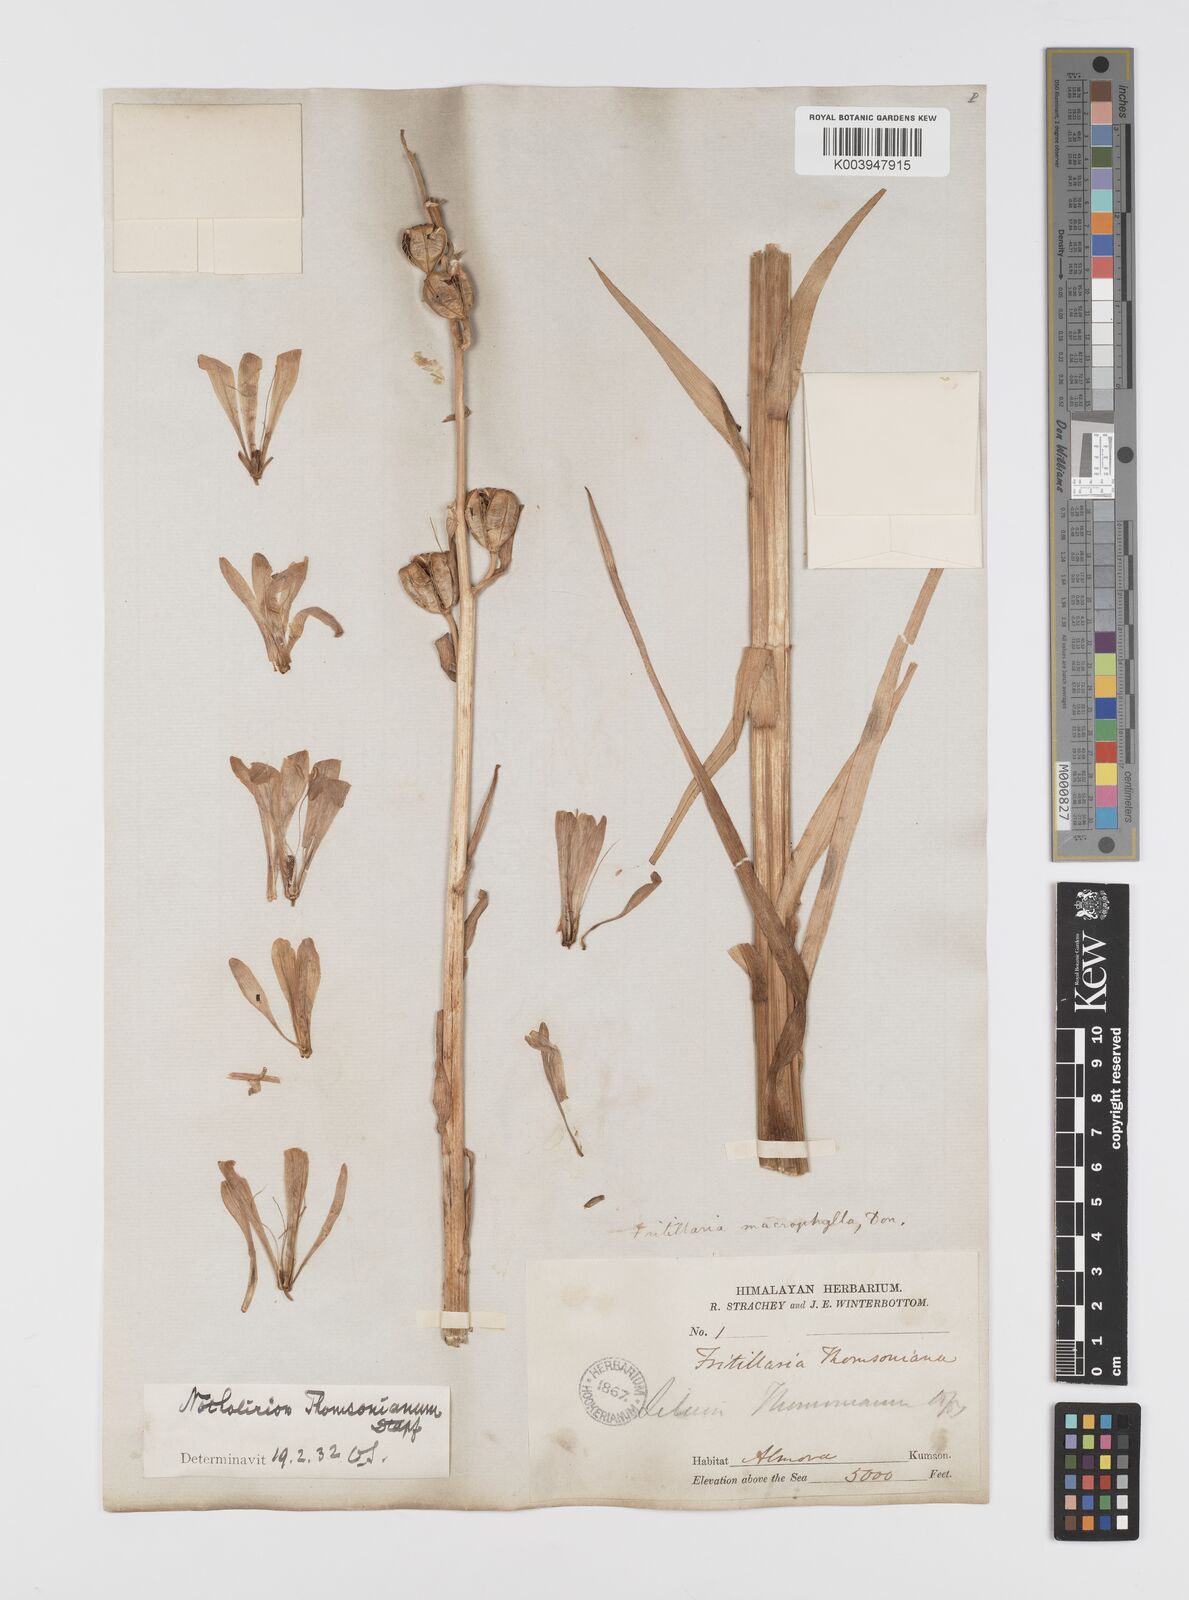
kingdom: Plantae
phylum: Tracheophyta
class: Liliopsida
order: Liliales
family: Liliaceae
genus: Notholirion
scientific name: Notholirion thomsonianum
